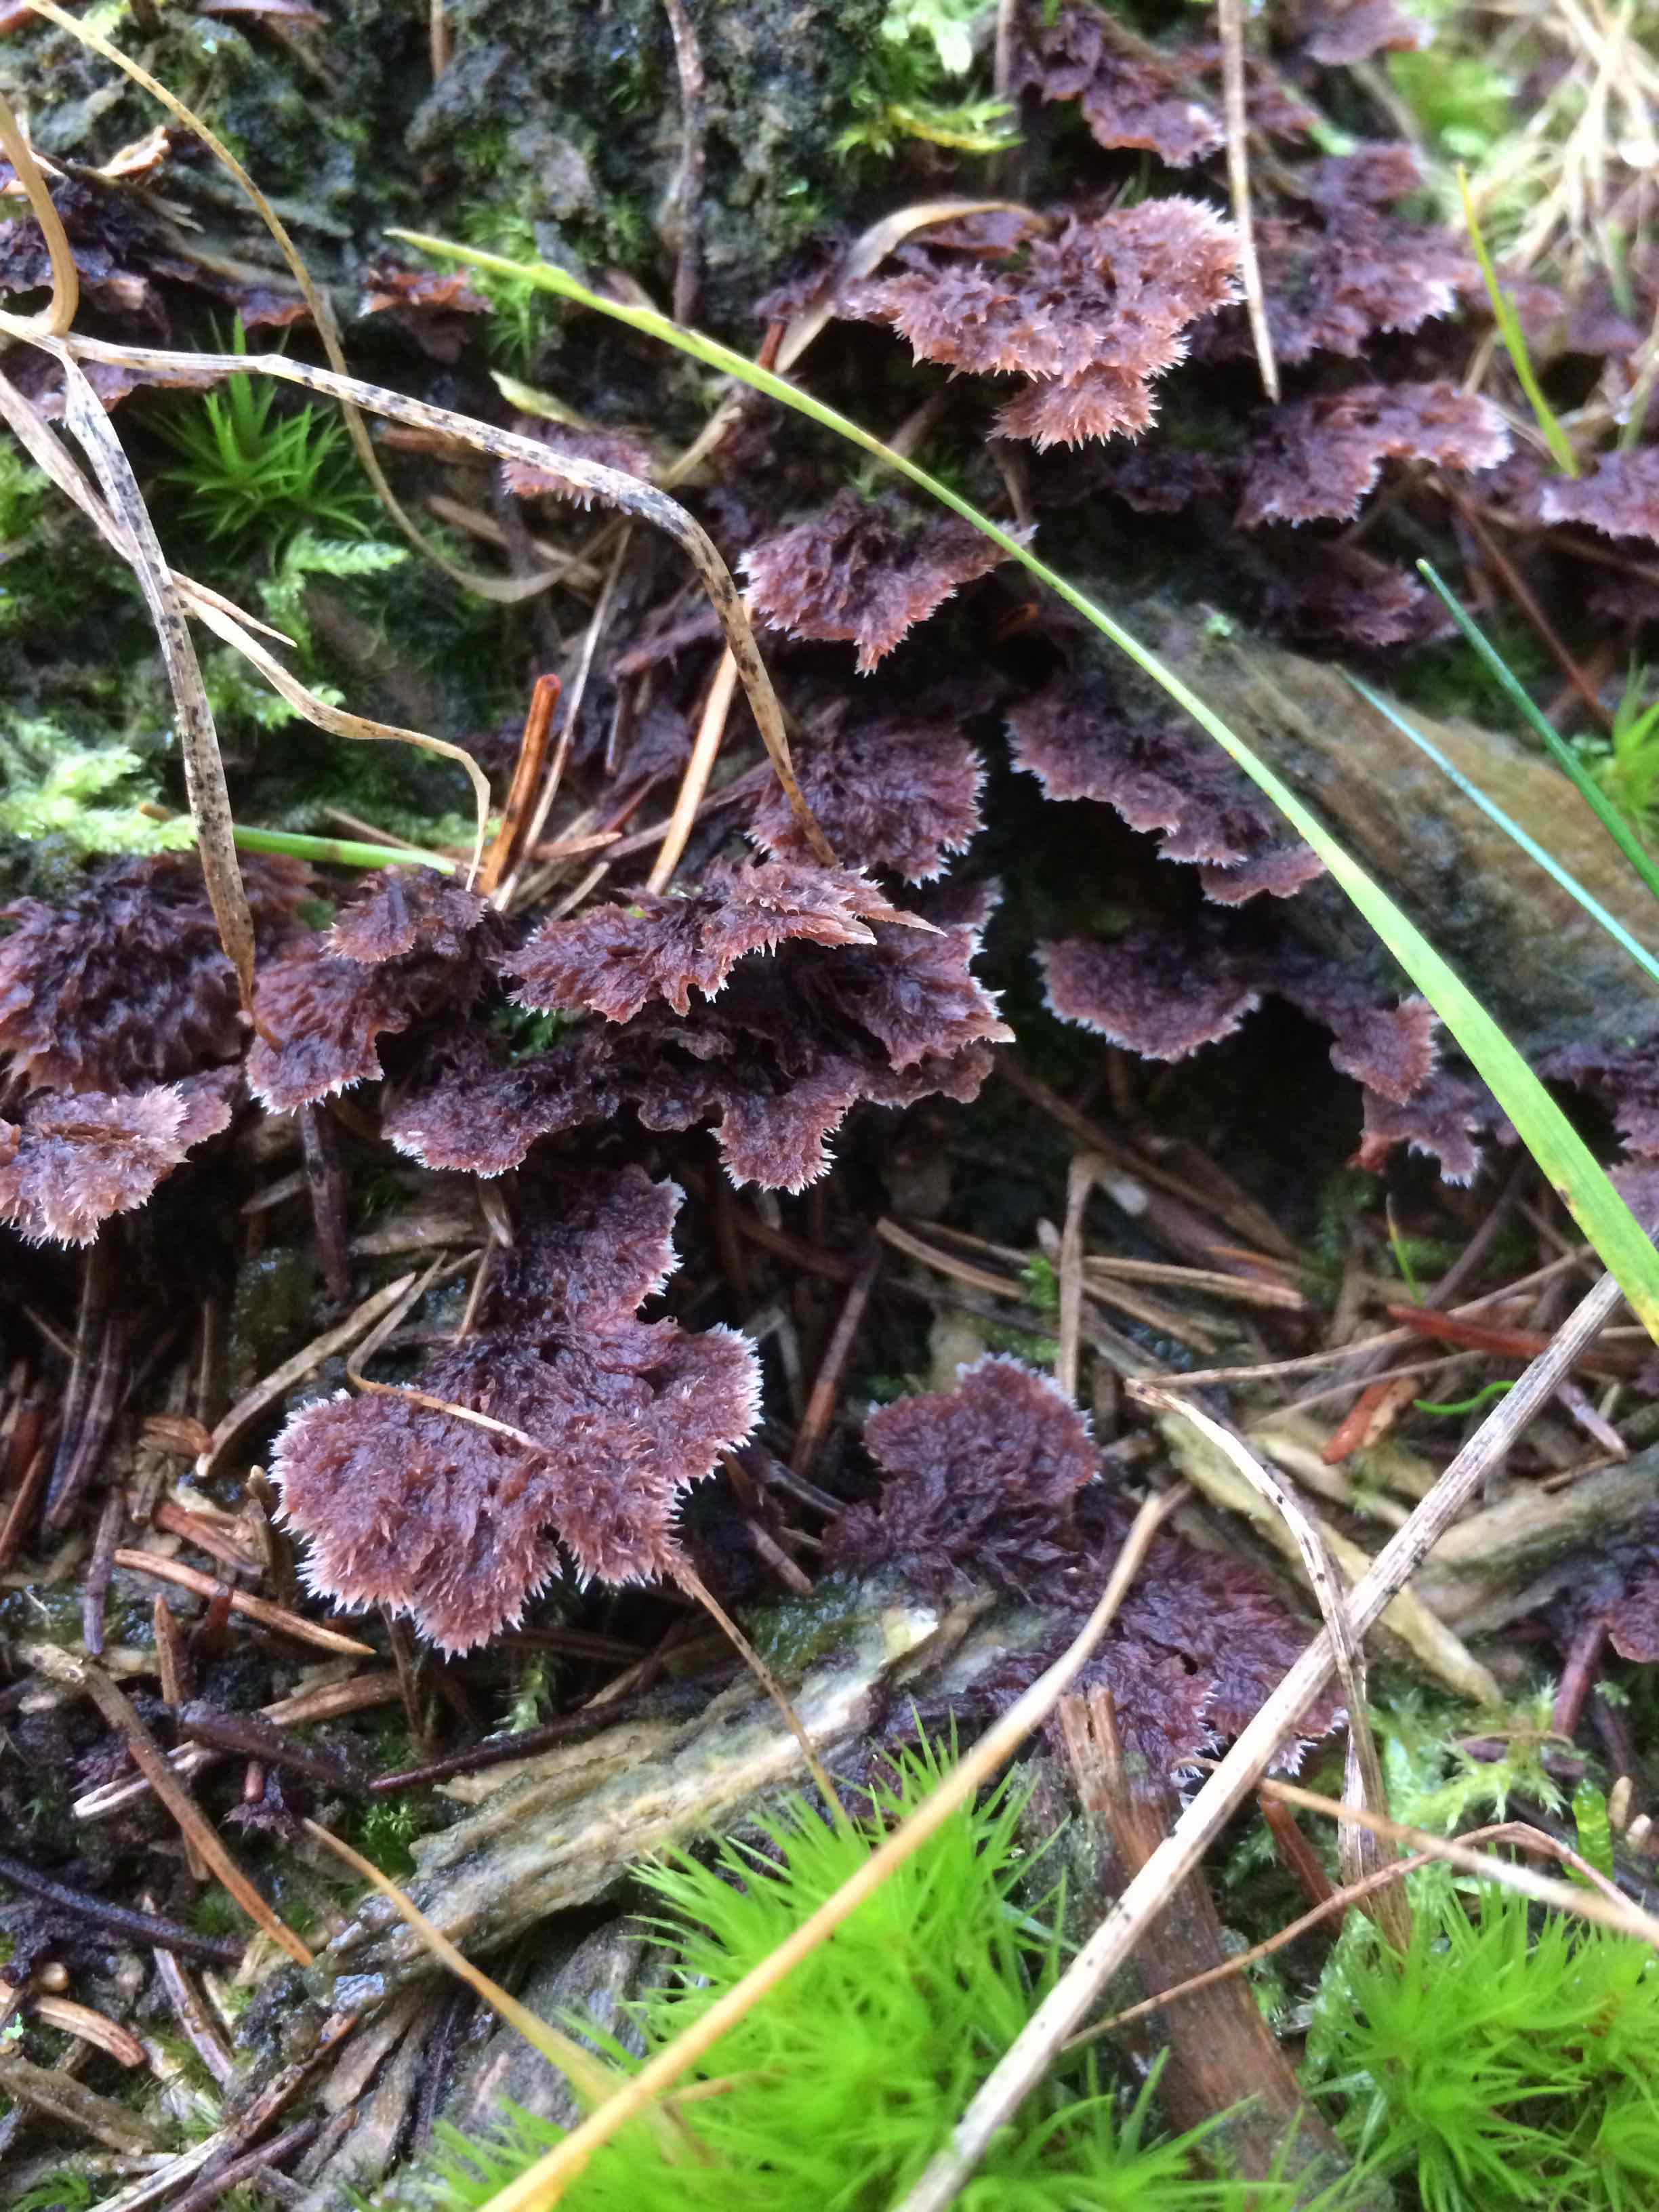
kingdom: Fungi
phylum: Basidiomycota
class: Agaricomycetes
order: Thelephorales
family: Thelephoraceae
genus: Thelephora
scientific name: Thelephora terrestris
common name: fliget frynsesvamp
